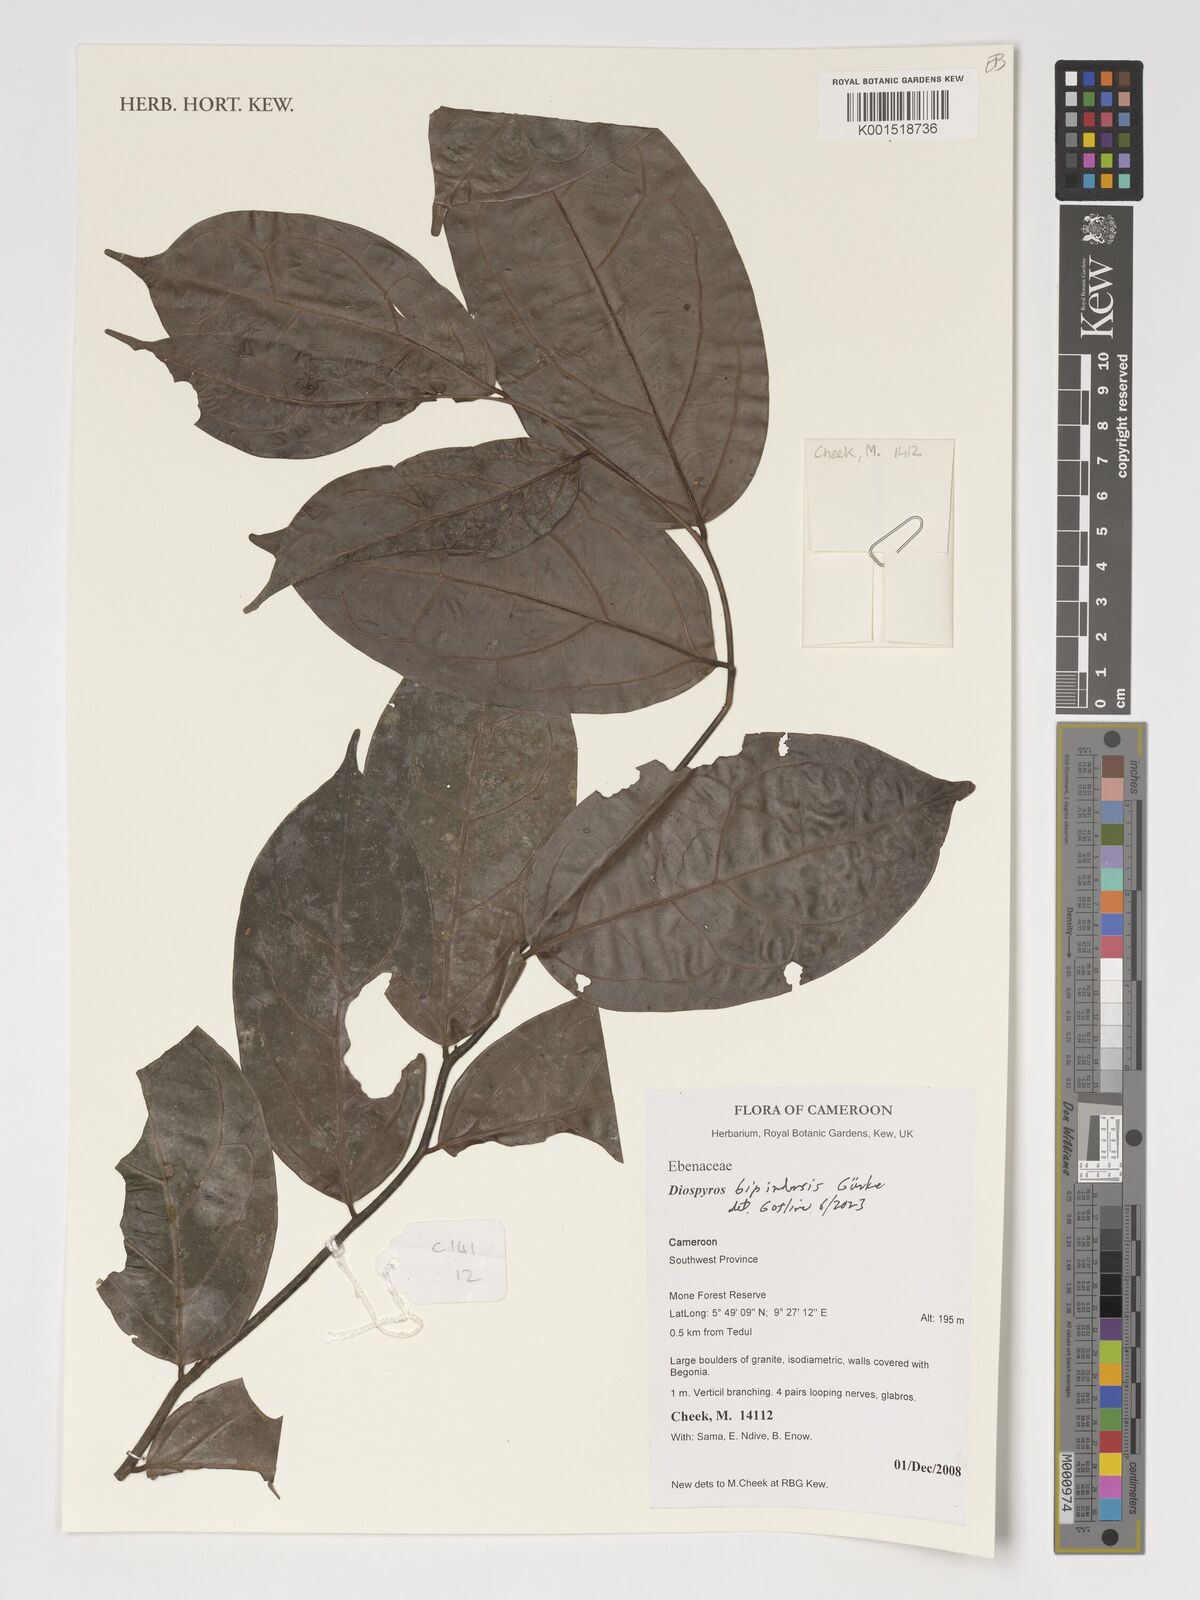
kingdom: Plantae
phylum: Tracheophyta
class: Magnoliopsida
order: Ericales
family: Ebenaceae
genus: Diospyros
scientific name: Diospyros bipindensis
